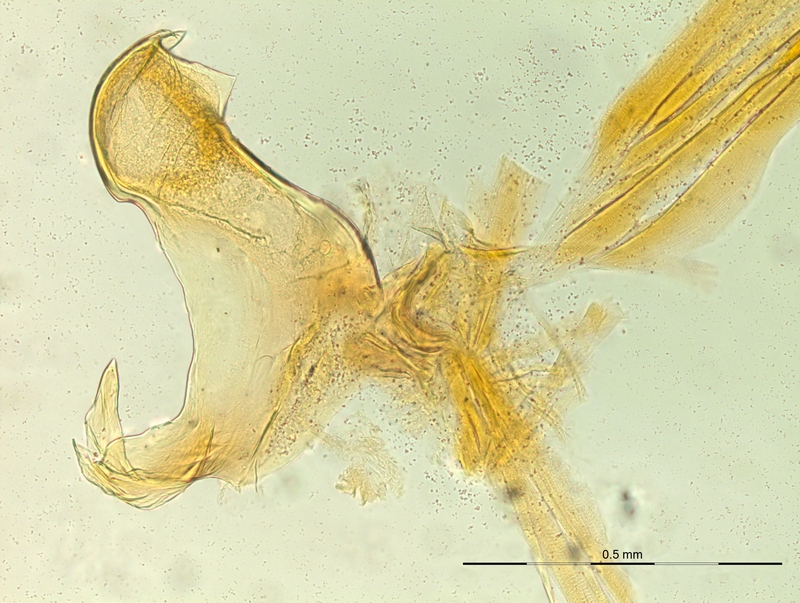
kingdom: Animalia
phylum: Arthropoda
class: Diplopoda
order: Chordeumatida
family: Craspedosomatidae
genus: Rhymogona
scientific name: Rhymogona montivaga
